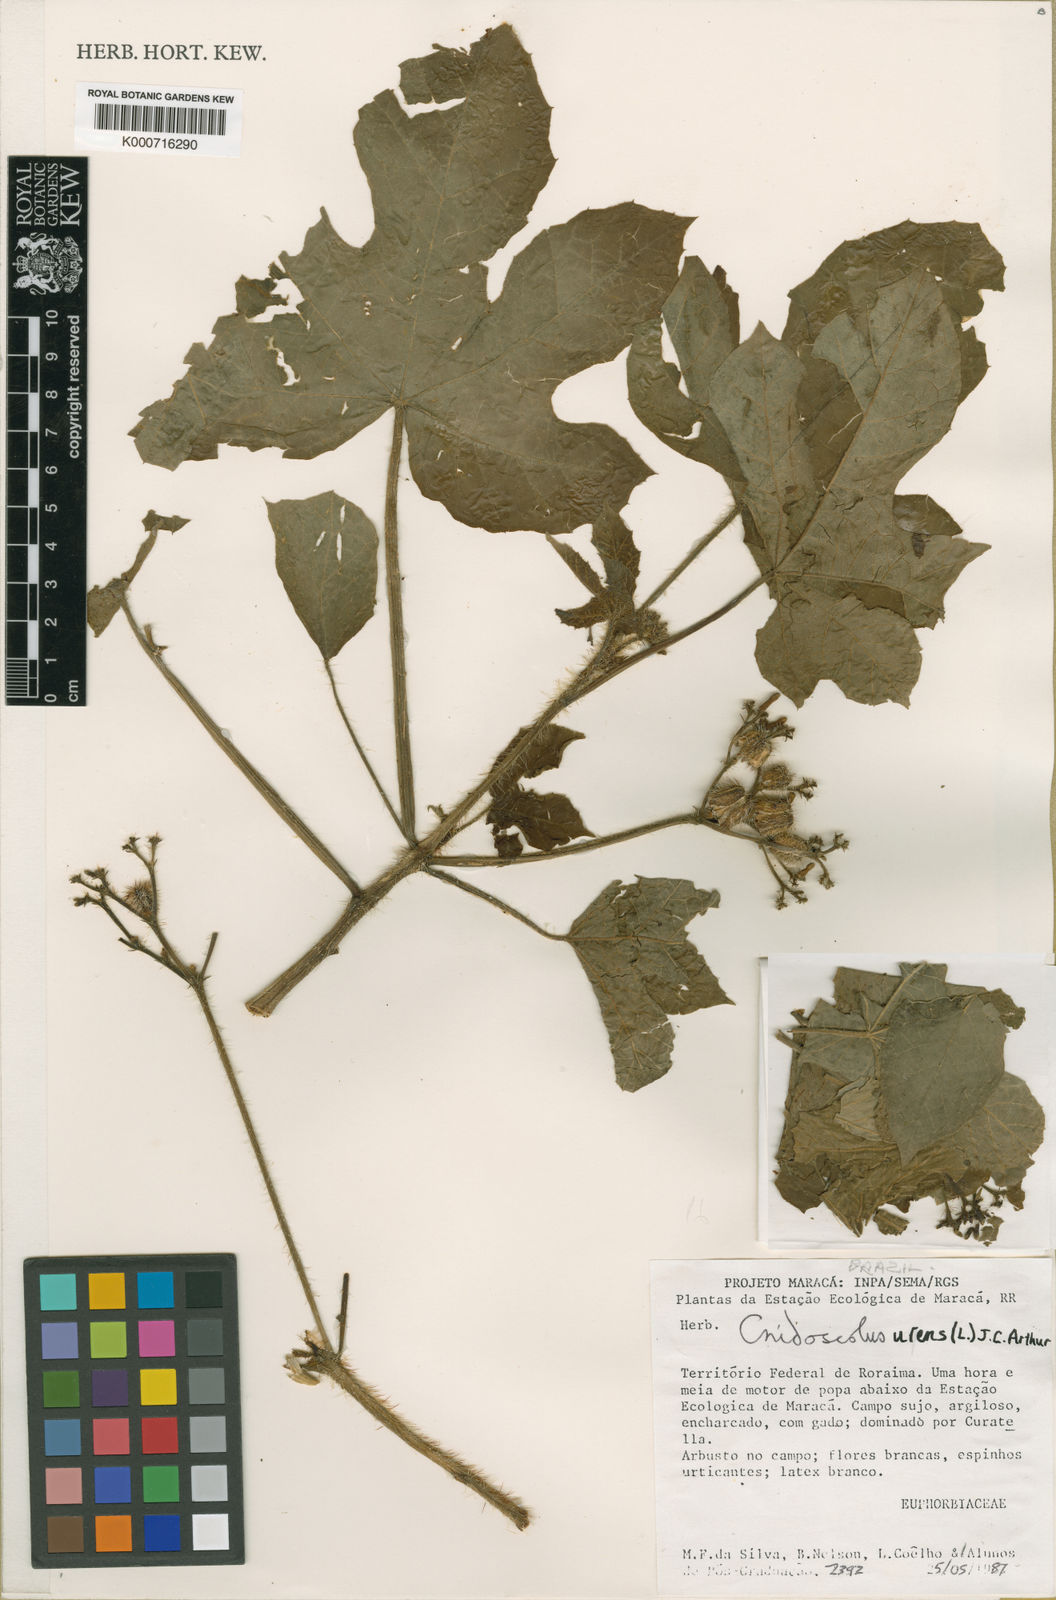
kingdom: Plantae
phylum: Tracheophyta
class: Magnoliopsida
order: Malpighiales
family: Euphorbiaceae
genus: Cnidoscolus
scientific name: Cnidoscolus urens
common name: Bull-nettle
